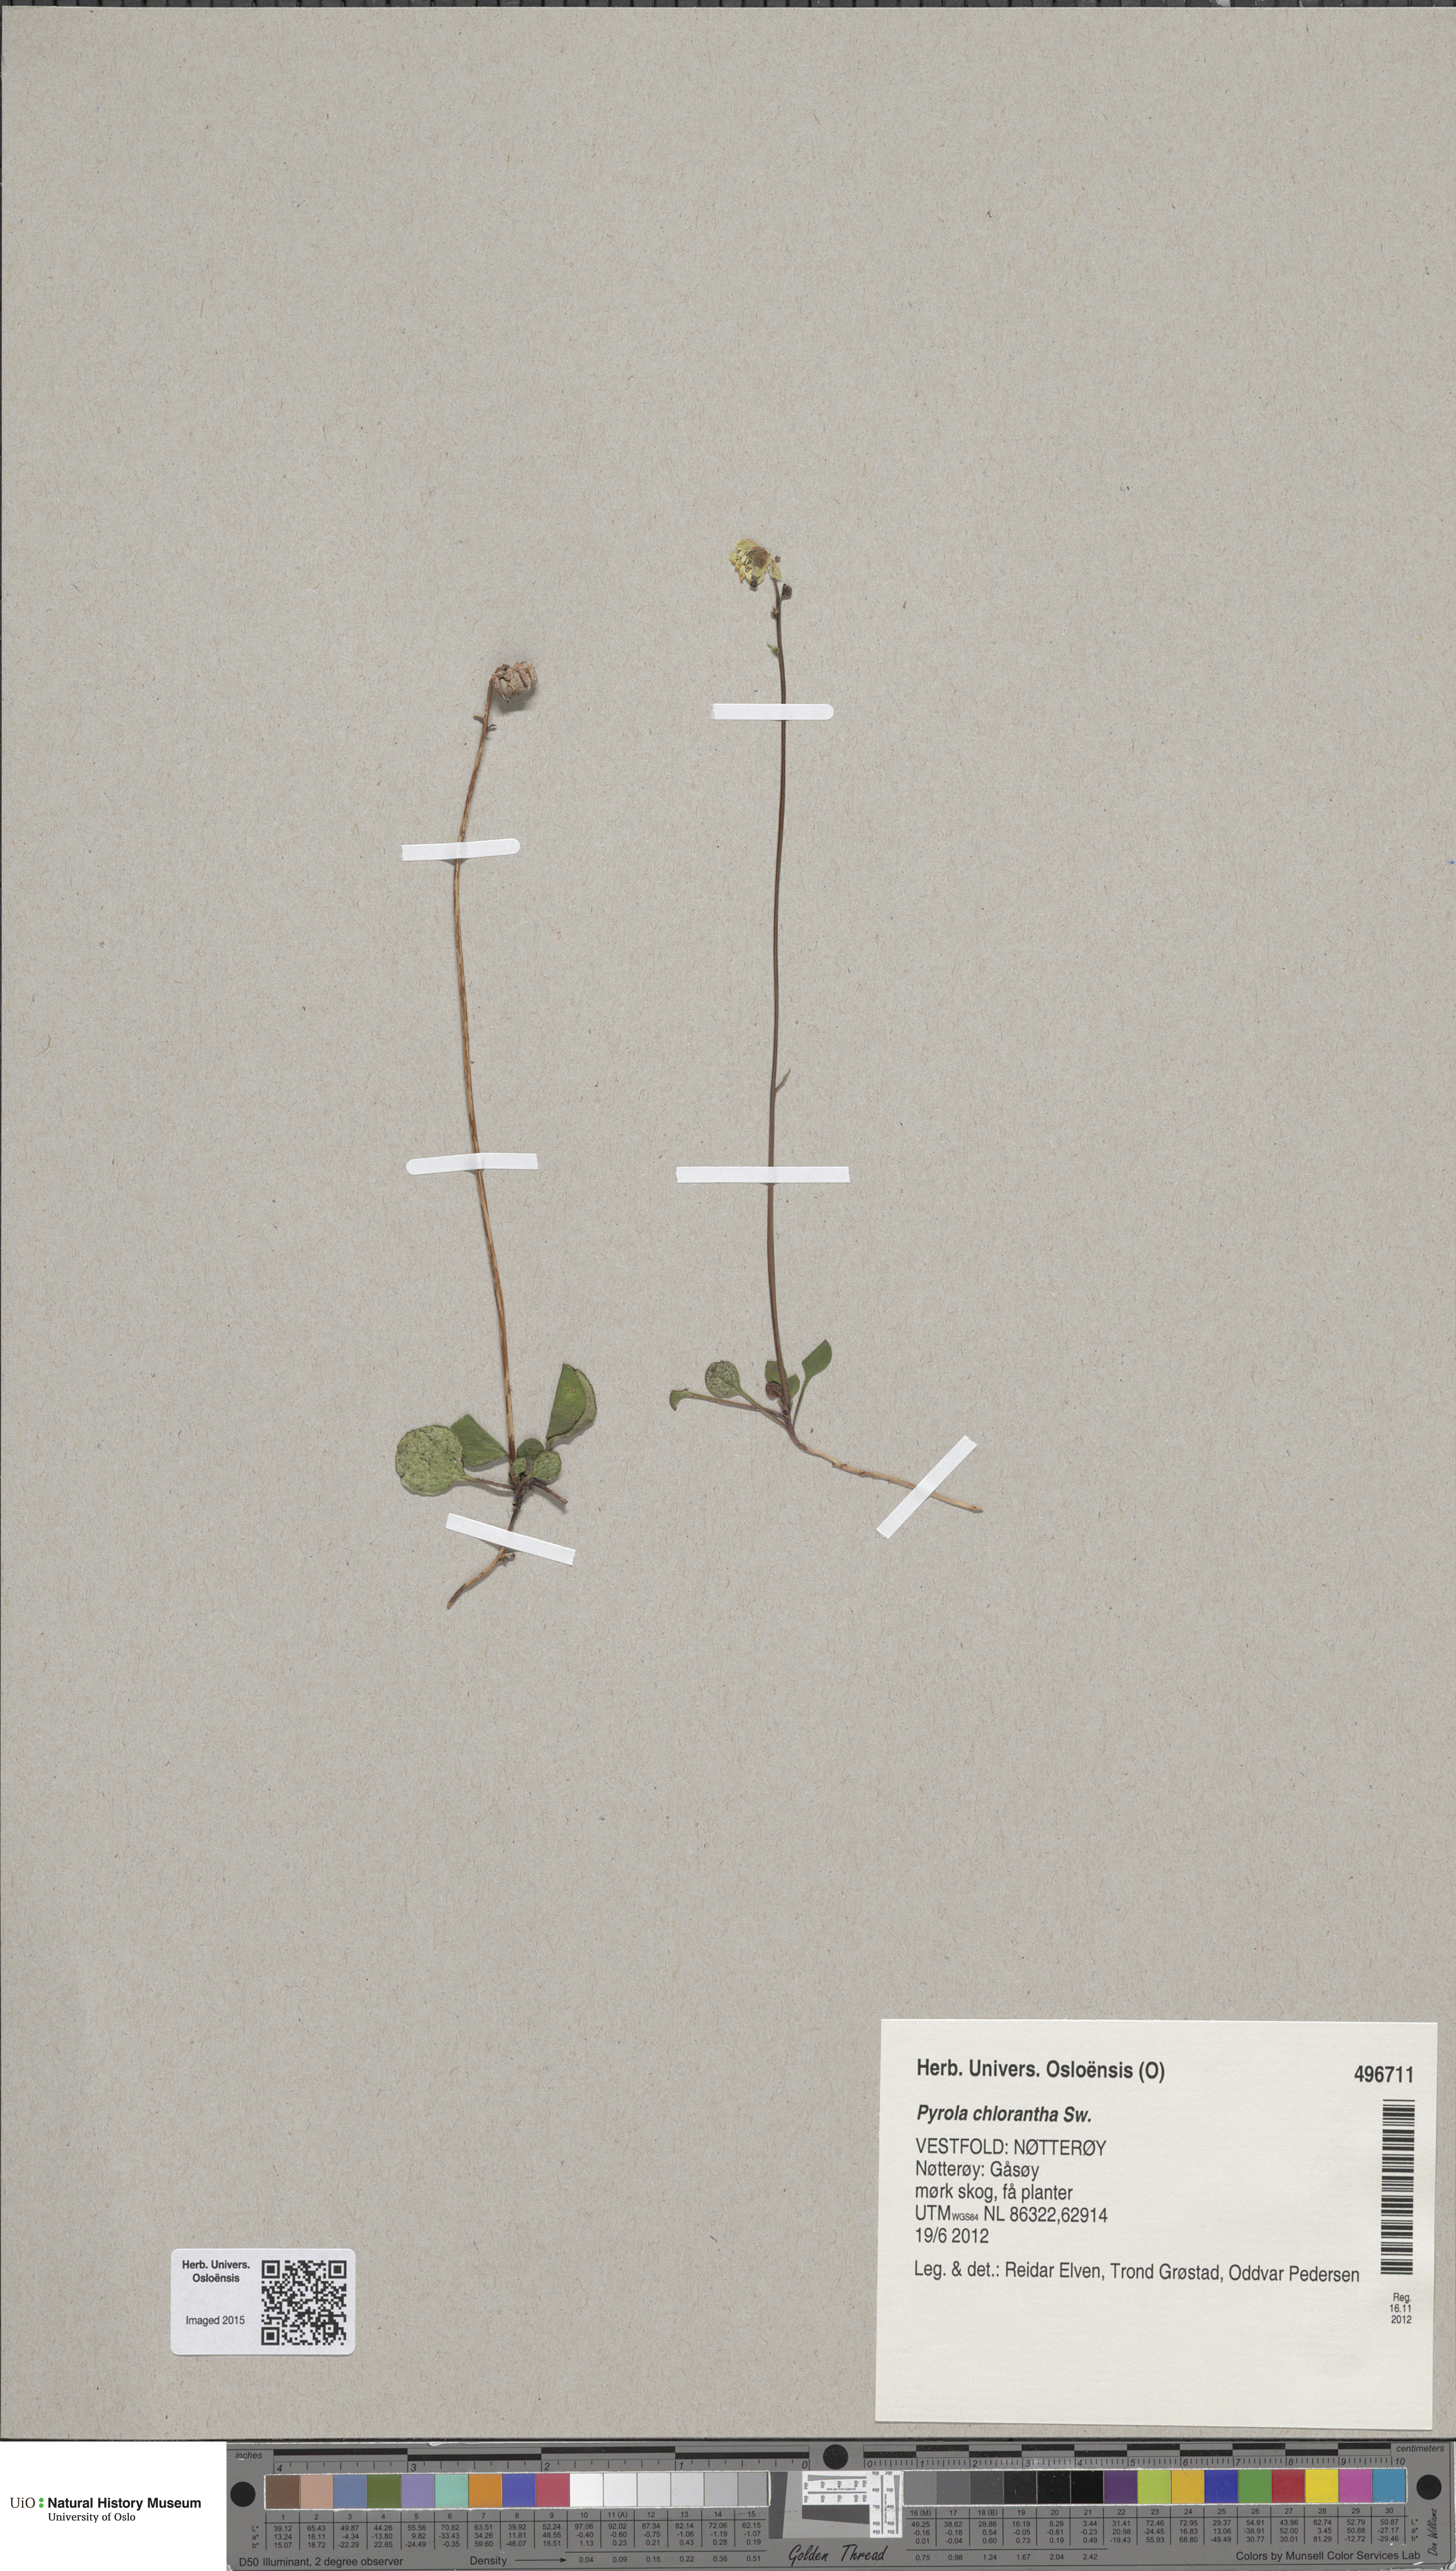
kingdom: Plantae
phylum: Tracheophyta
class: Magnoliopsida
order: Ericales
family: Ericaceae
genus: Pyrola
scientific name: Pyrola chlorantha
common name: Green wintergreen
